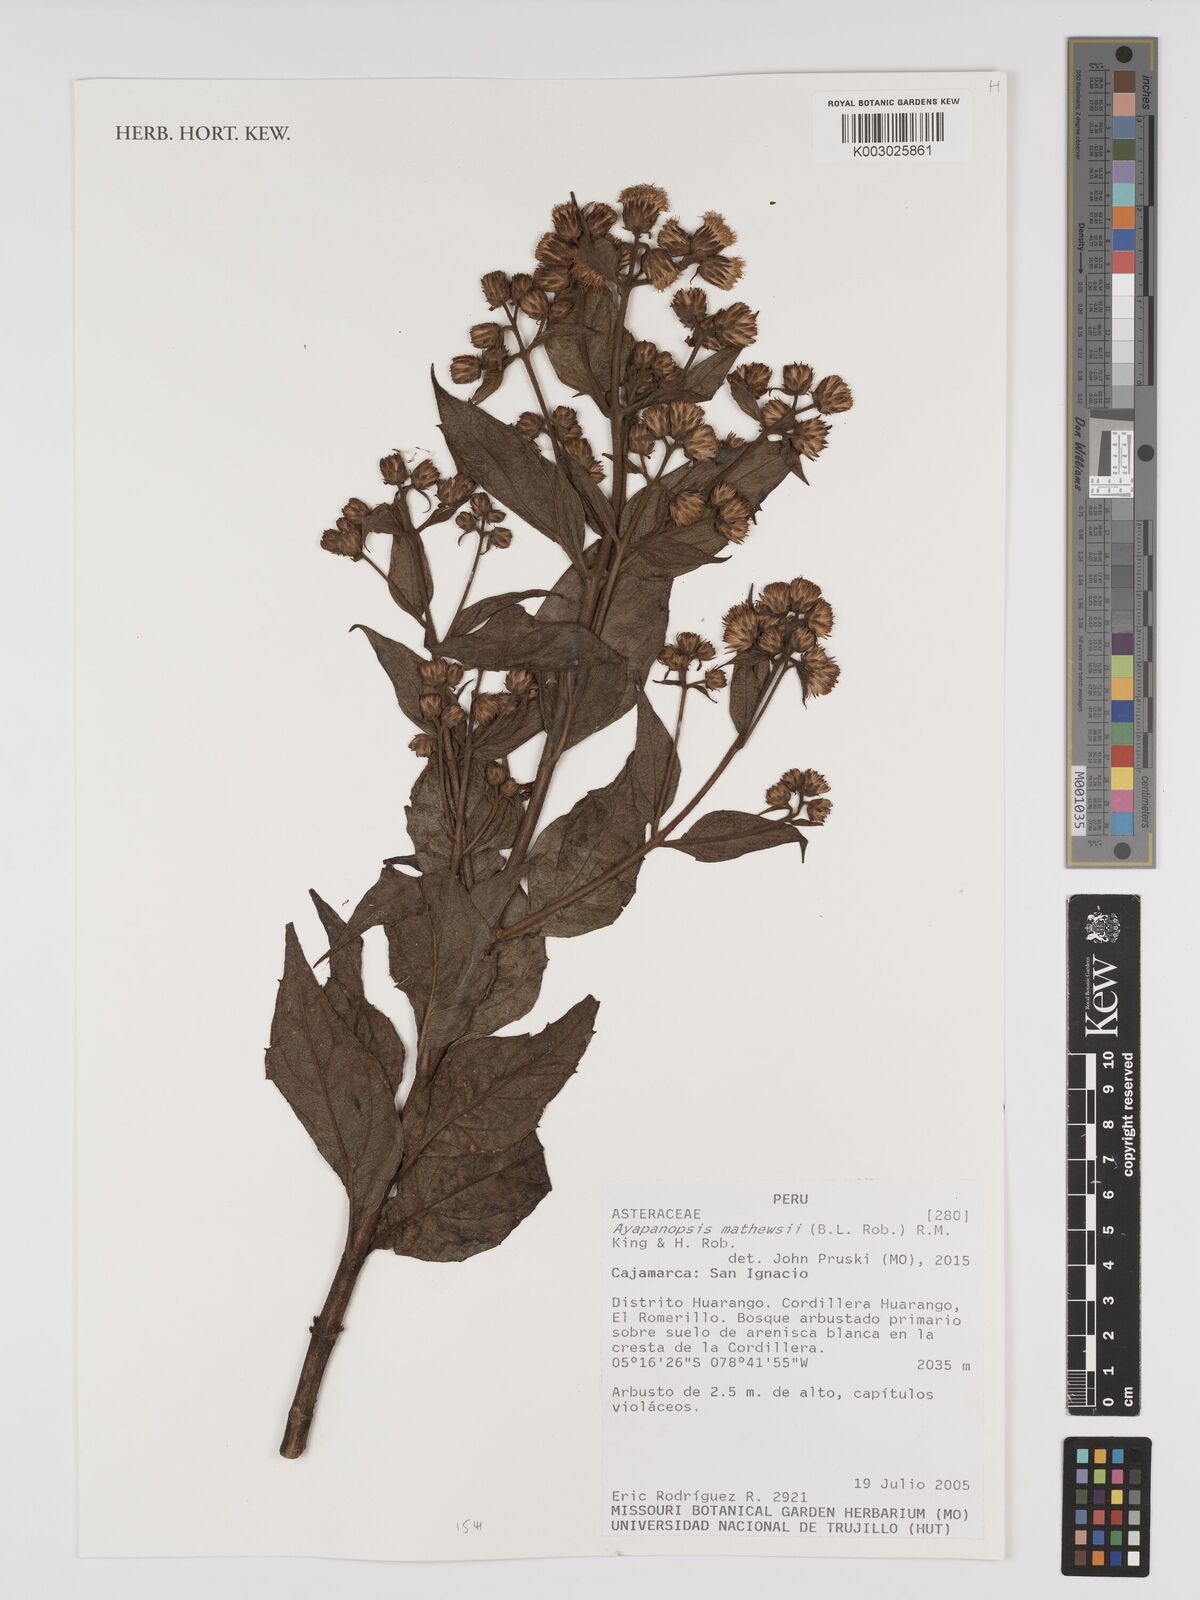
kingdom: Plantae
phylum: Tracheophyta
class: Magnoliopsida
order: Asterales
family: Asteraceae
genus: Ayapanopsis
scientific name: Ayapanopsis mathewsii
